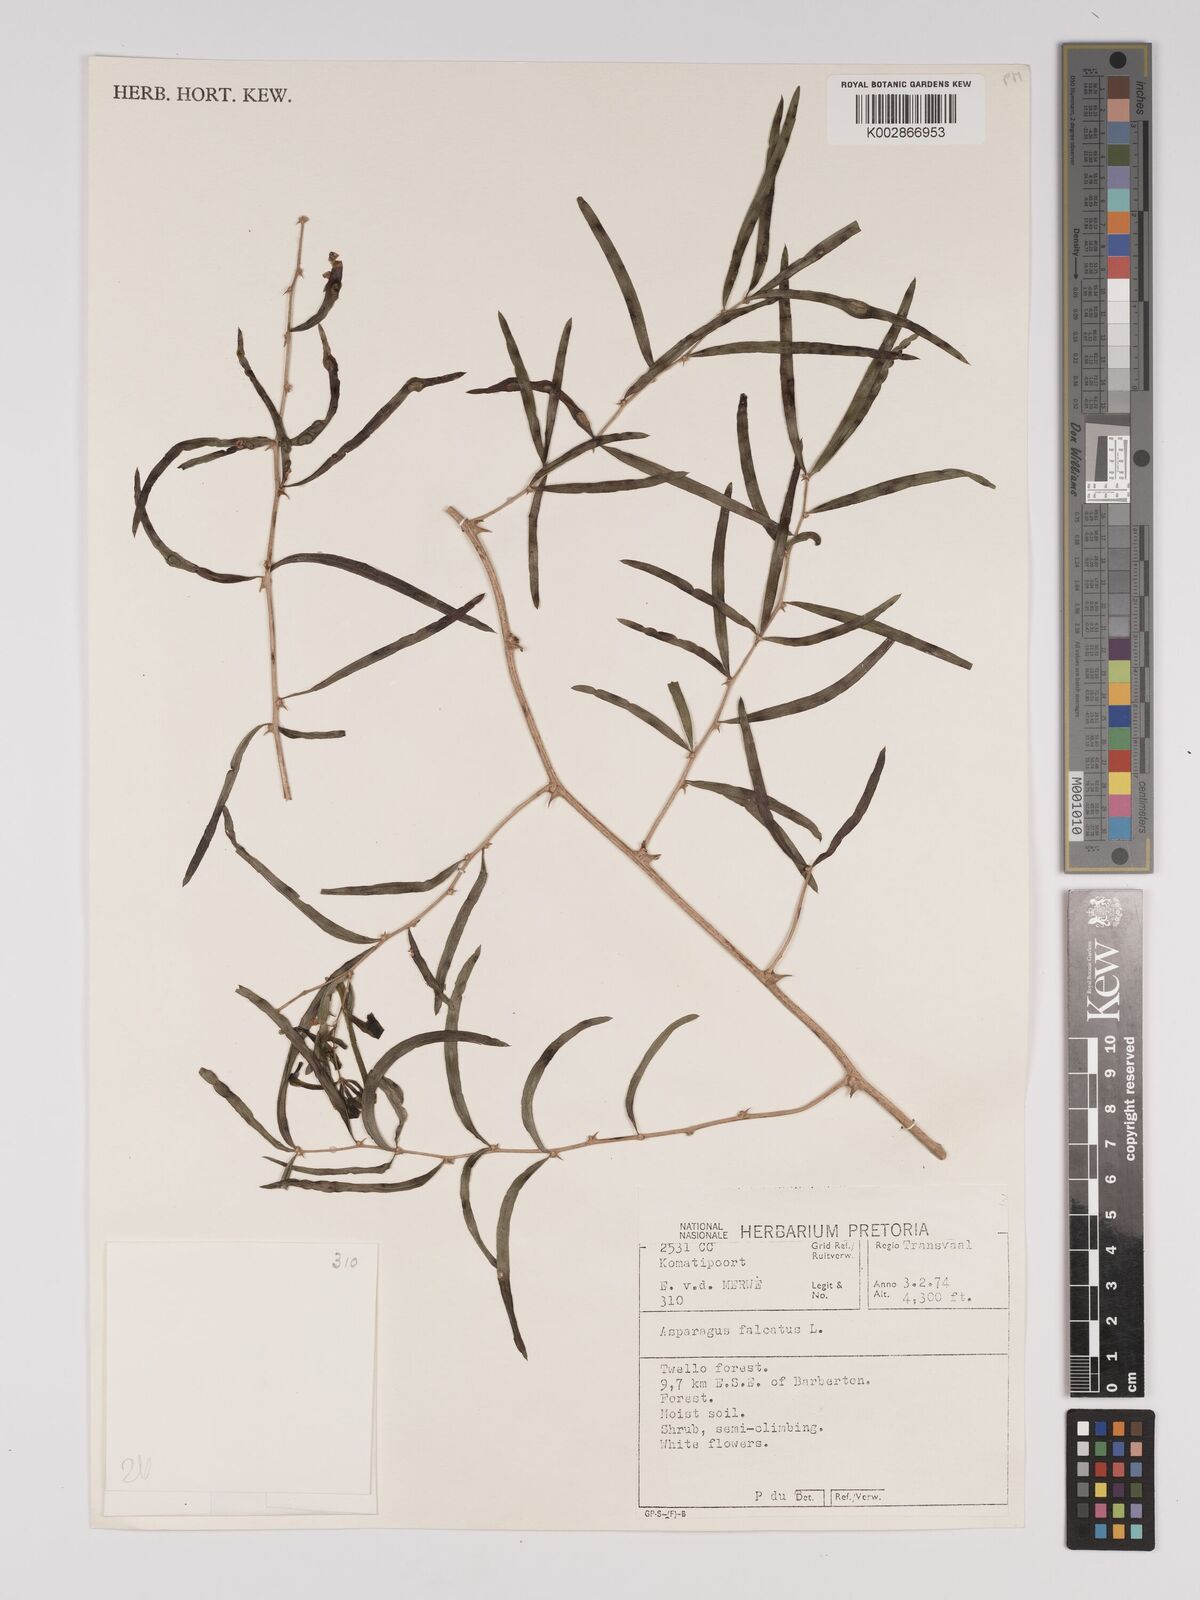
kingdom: Plantae
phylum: Tracheophyta
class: Liliopsida
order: Asparagales
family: Asparagaceae
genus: Asparagus
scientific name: Asparagus falcatus
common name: Asparagus
